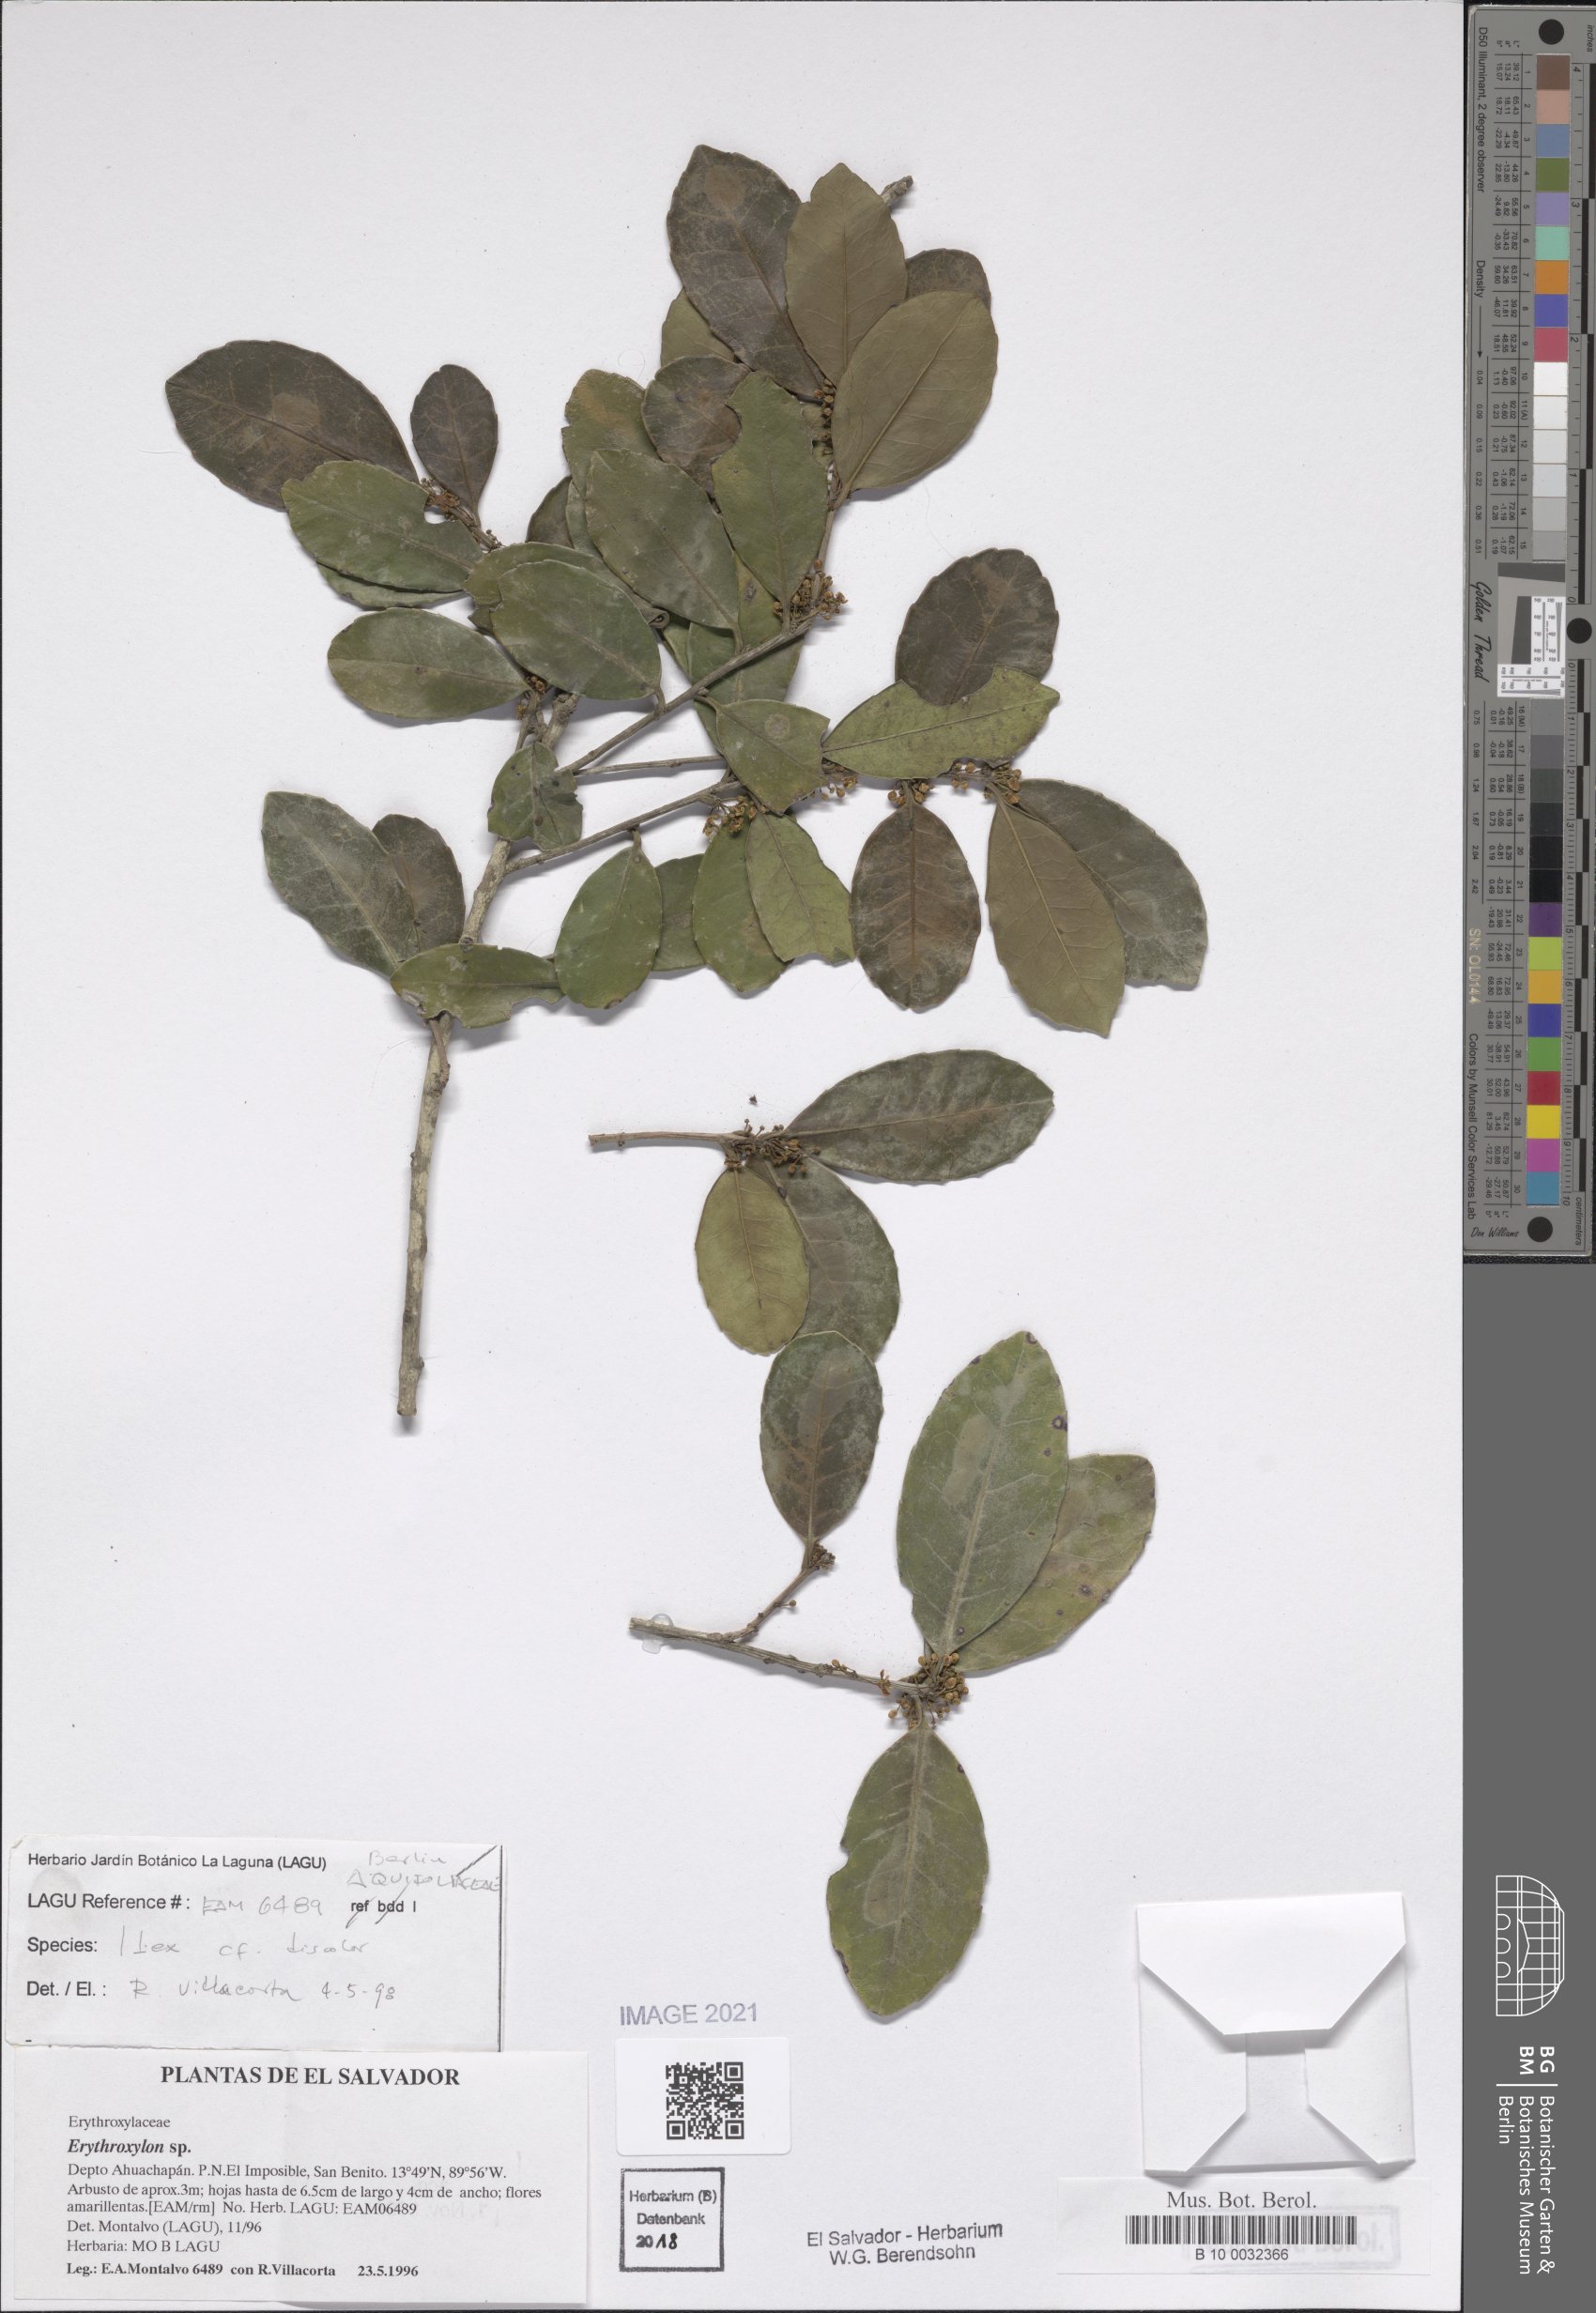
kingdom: Plantae
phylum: Tracheophyta
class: Magnoliopsida
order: Aquifoliales
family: Aquifoliaceae
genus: Ilex
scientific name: Ilex discolor
